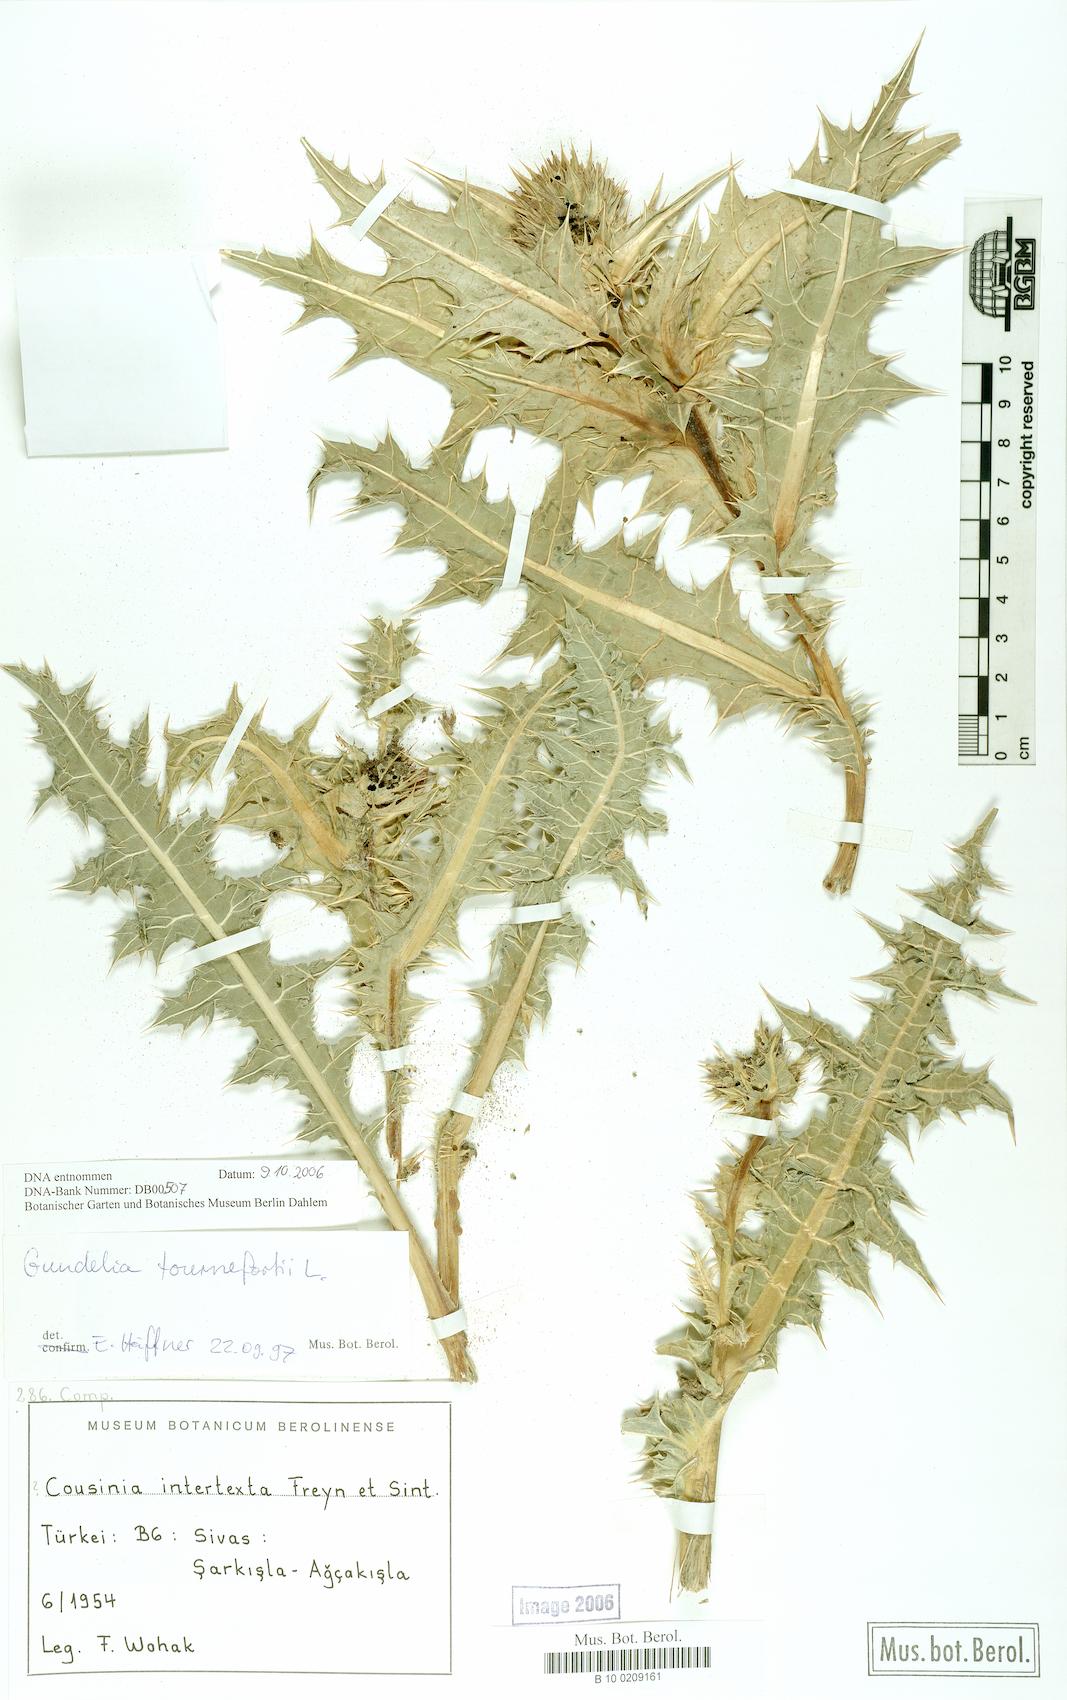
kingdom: Plantae
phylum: Tracheophyta
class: Magnoliopsida
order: Asterales
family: Asteraceae
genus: Gundelia
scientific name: Gundelia tournefortii
